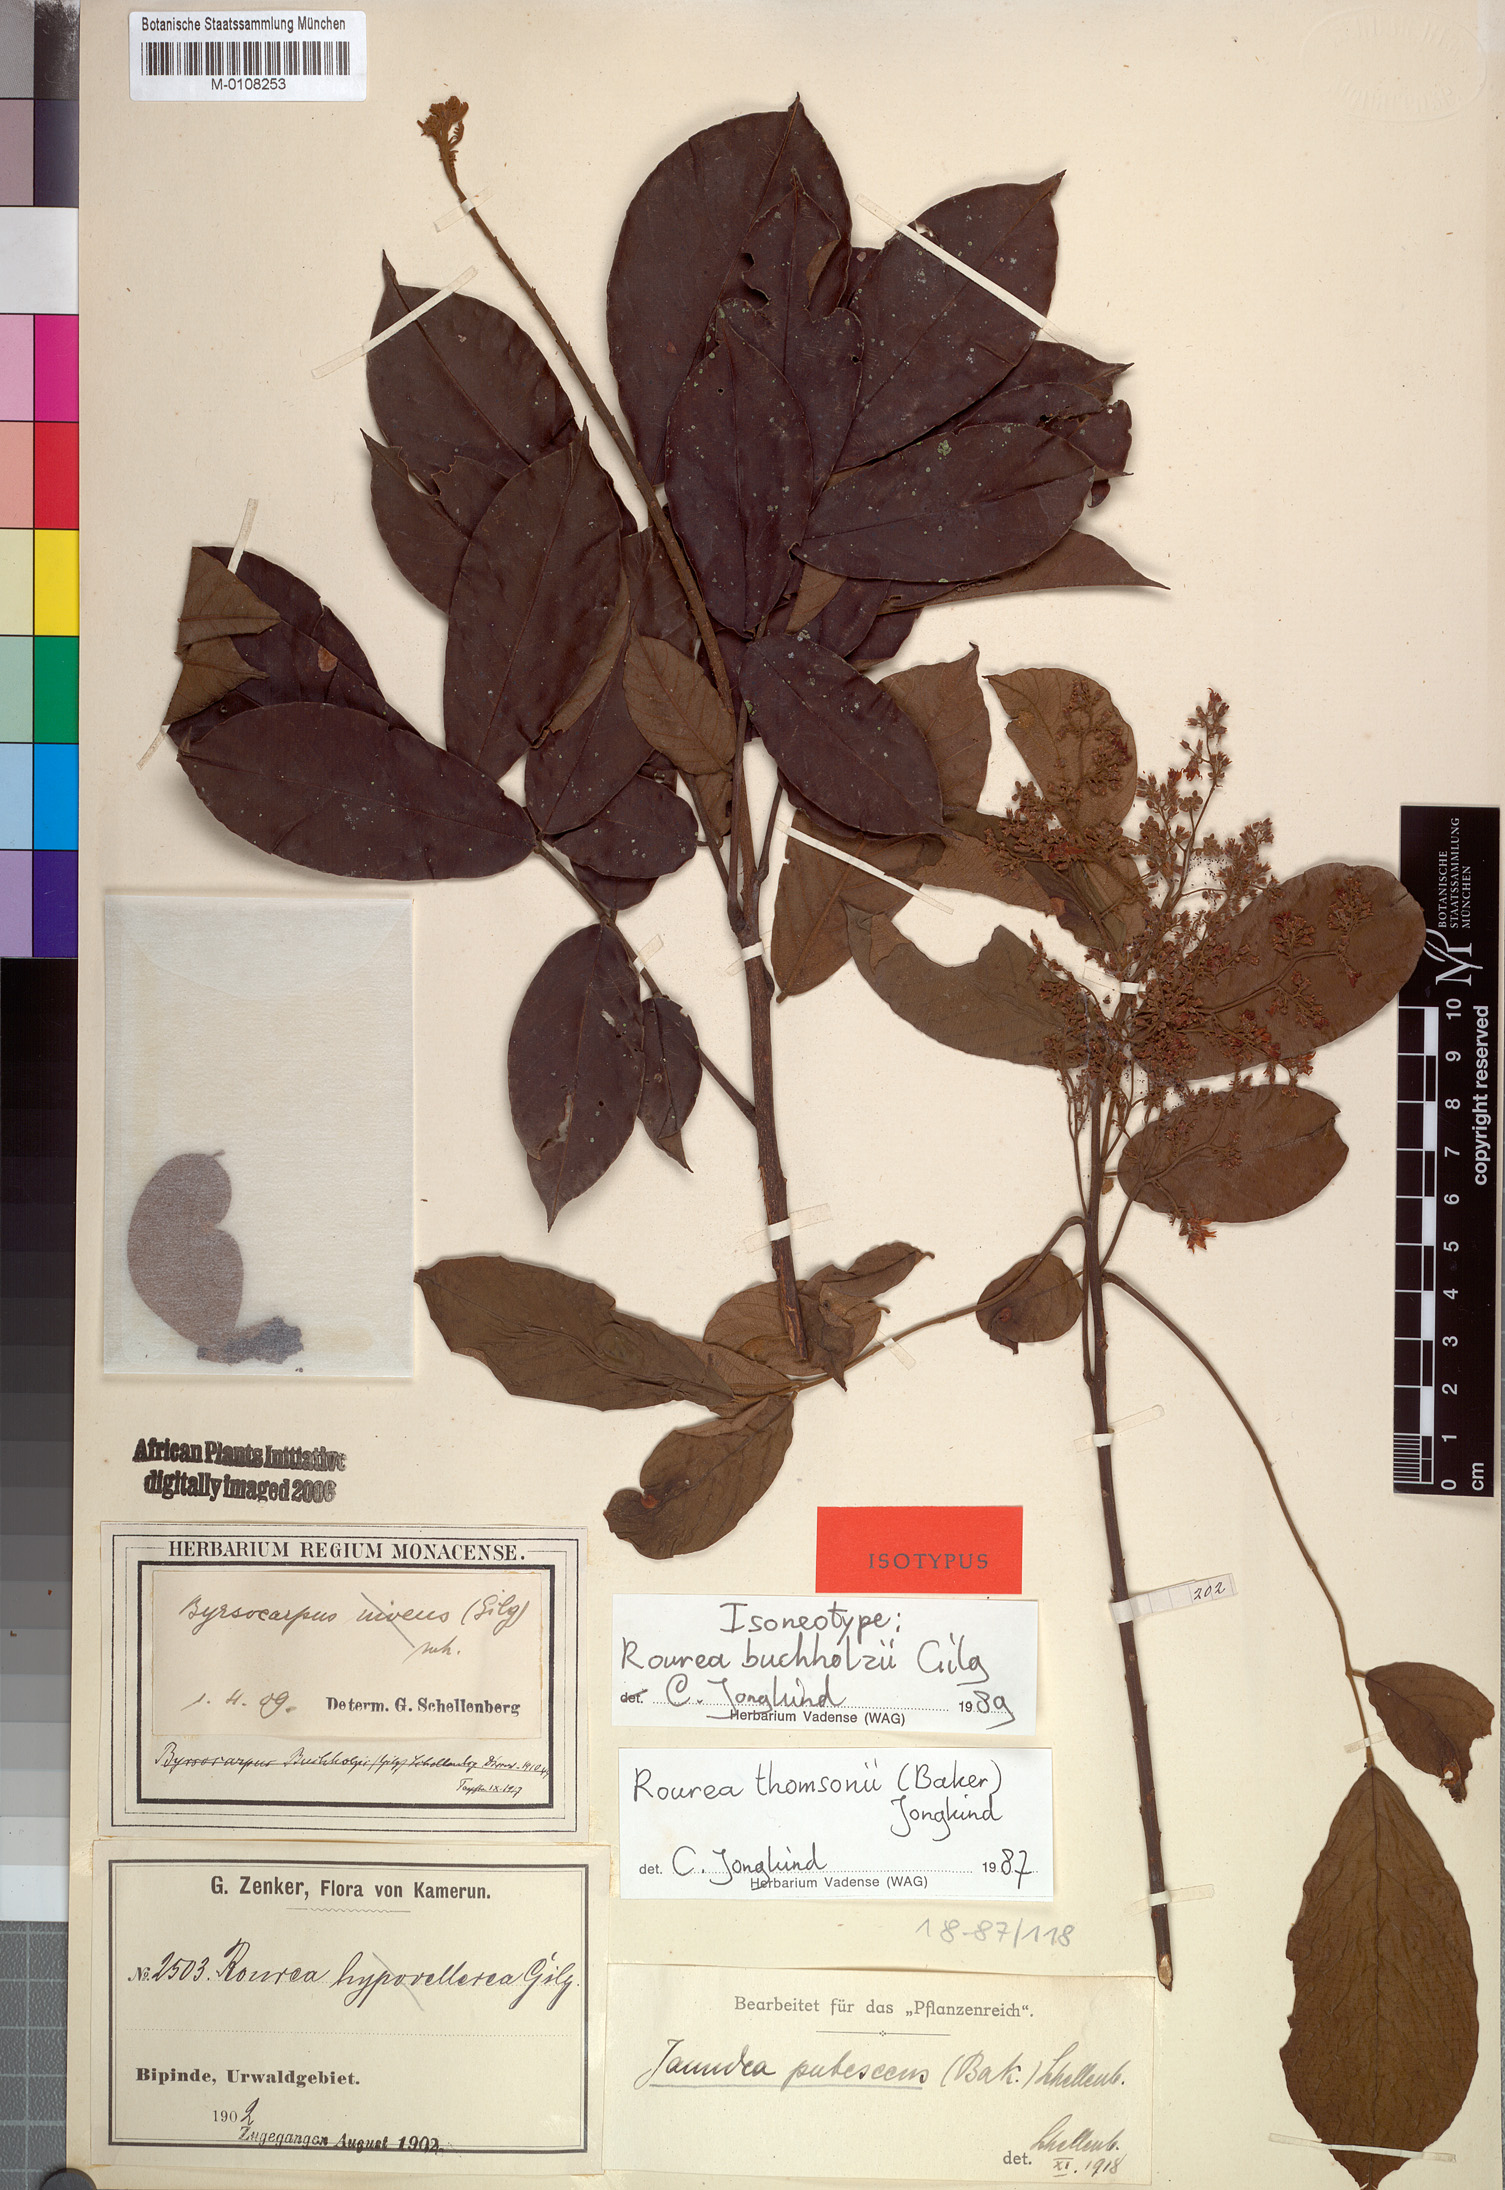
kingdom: Plantae
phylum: Tracheophyta
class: Magnoliopsida
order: Oxalidales
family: Connaraceae
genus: Rourea
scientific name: Rourea thomsonii
